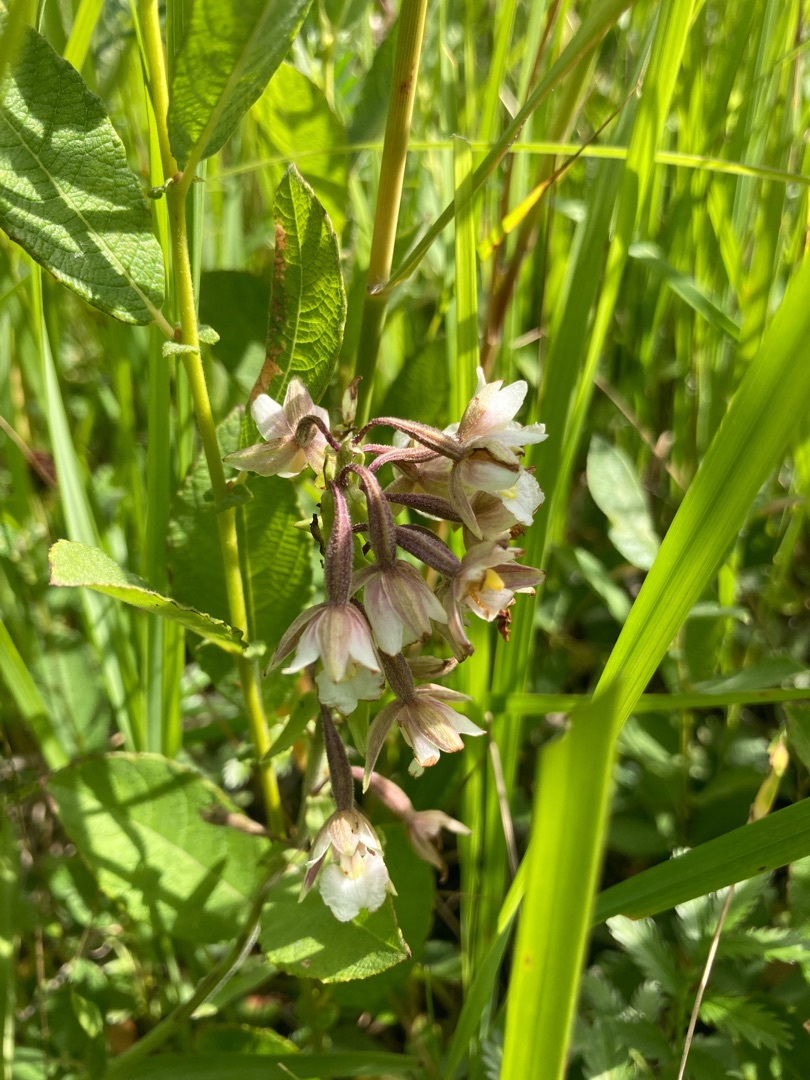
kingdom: Plantae
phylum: Tracheophyta
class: Liliopsida
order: Asparagales
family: Orchidaceae
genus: Epipactis
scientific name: Epipactis palustris
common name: Sump-hullæbe
